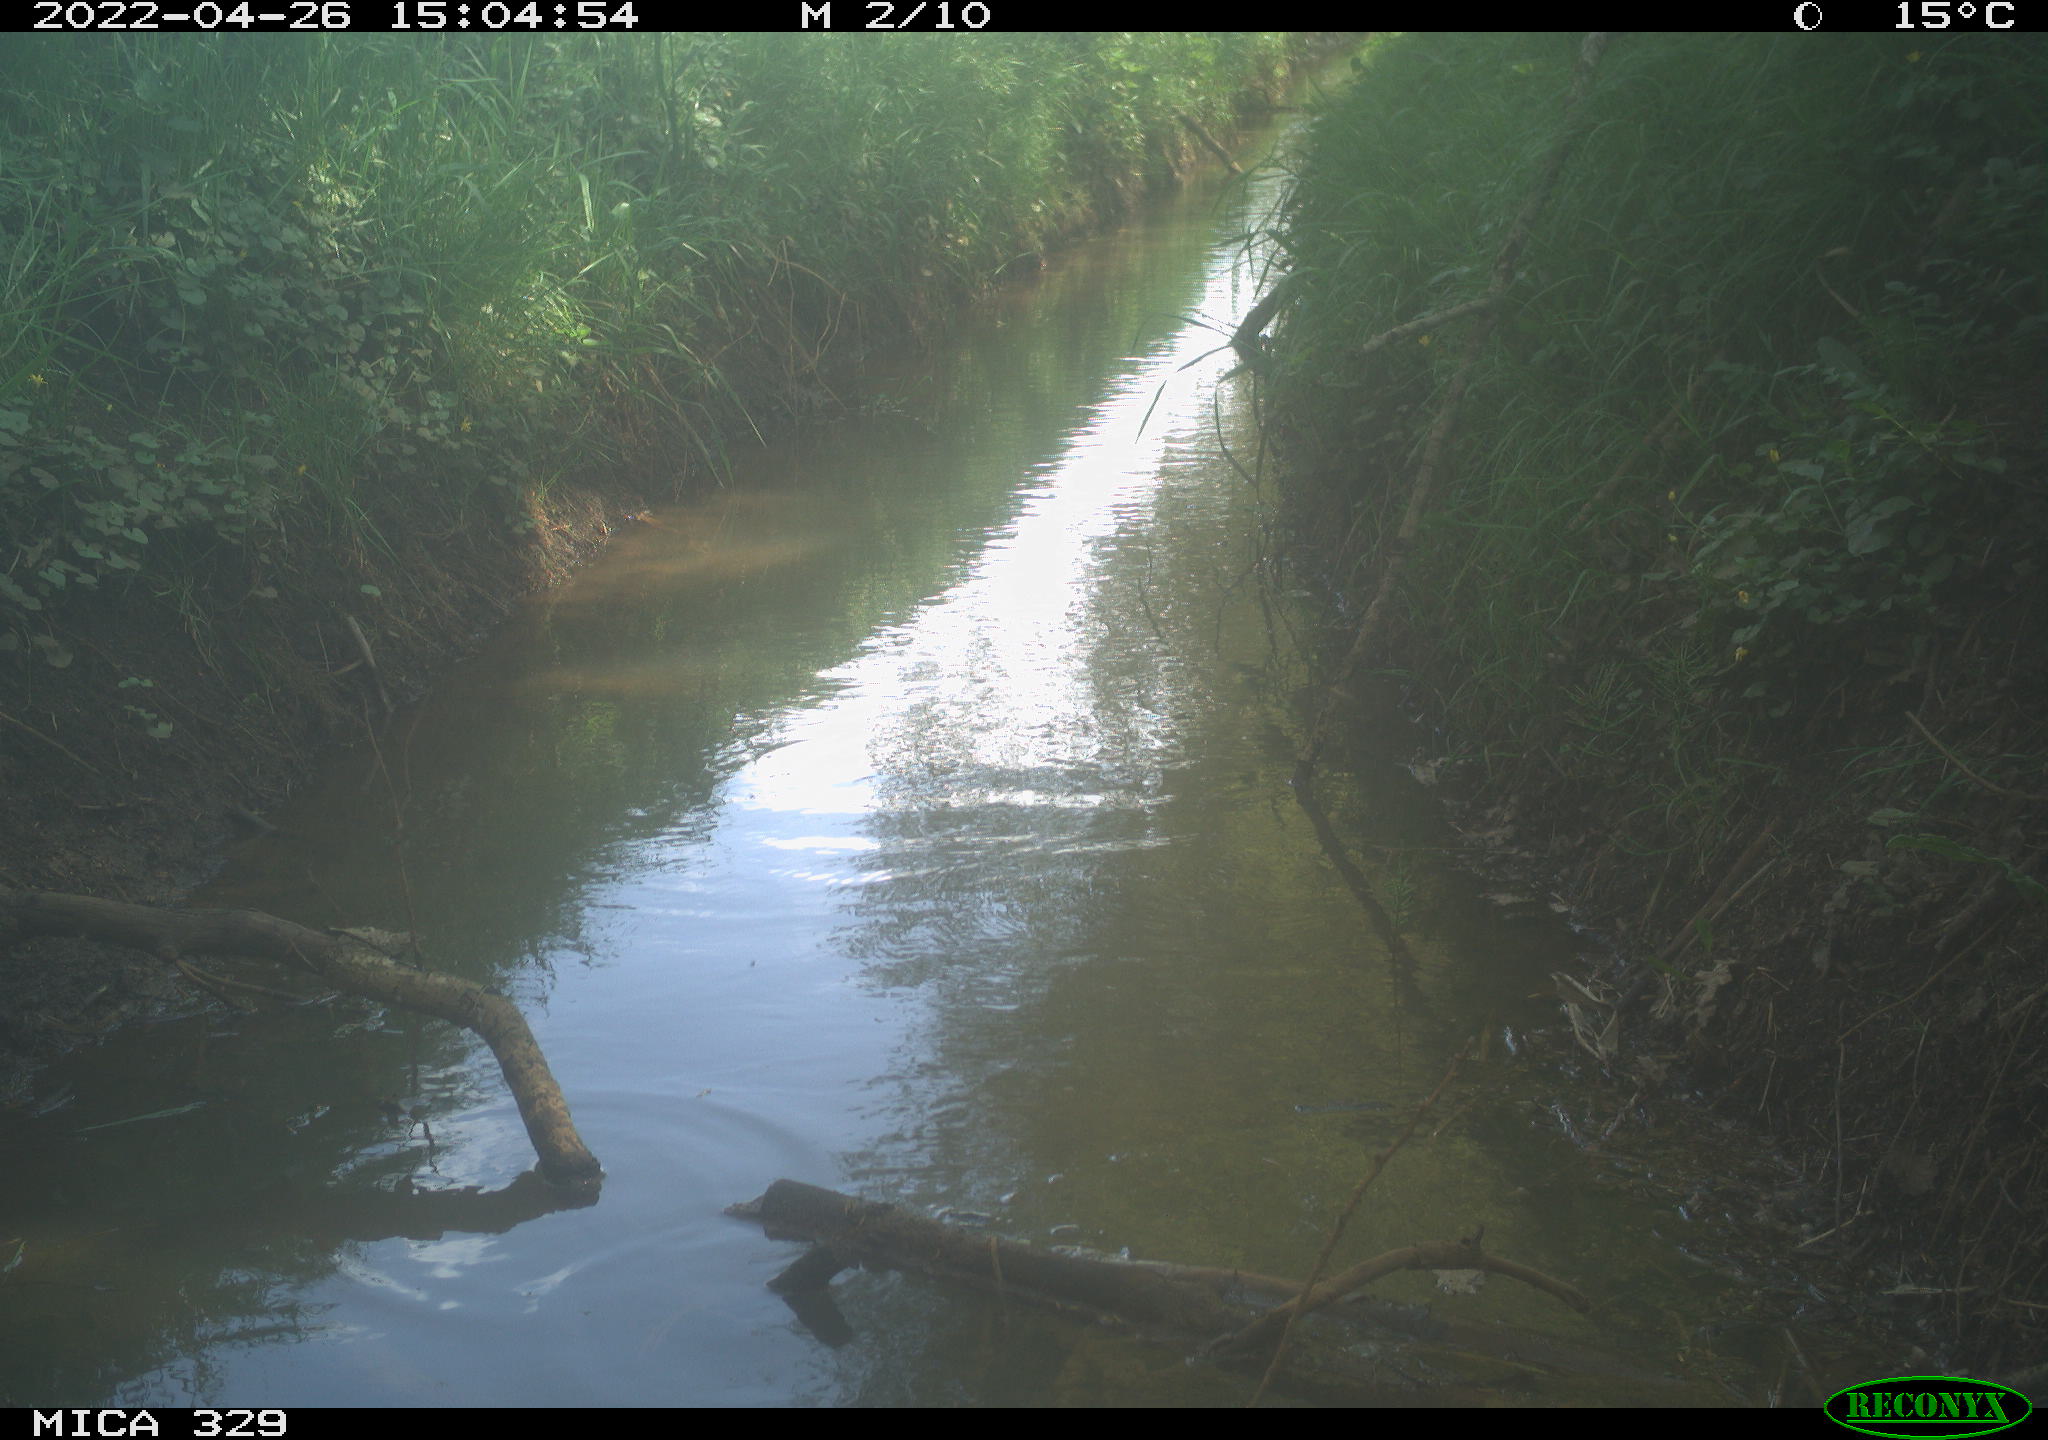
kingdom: Animalia
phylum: Chordata
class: Aves
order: Passeriformes
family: Turdidae
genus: Turdus
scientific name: Turdus merula
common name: Common blackbird
